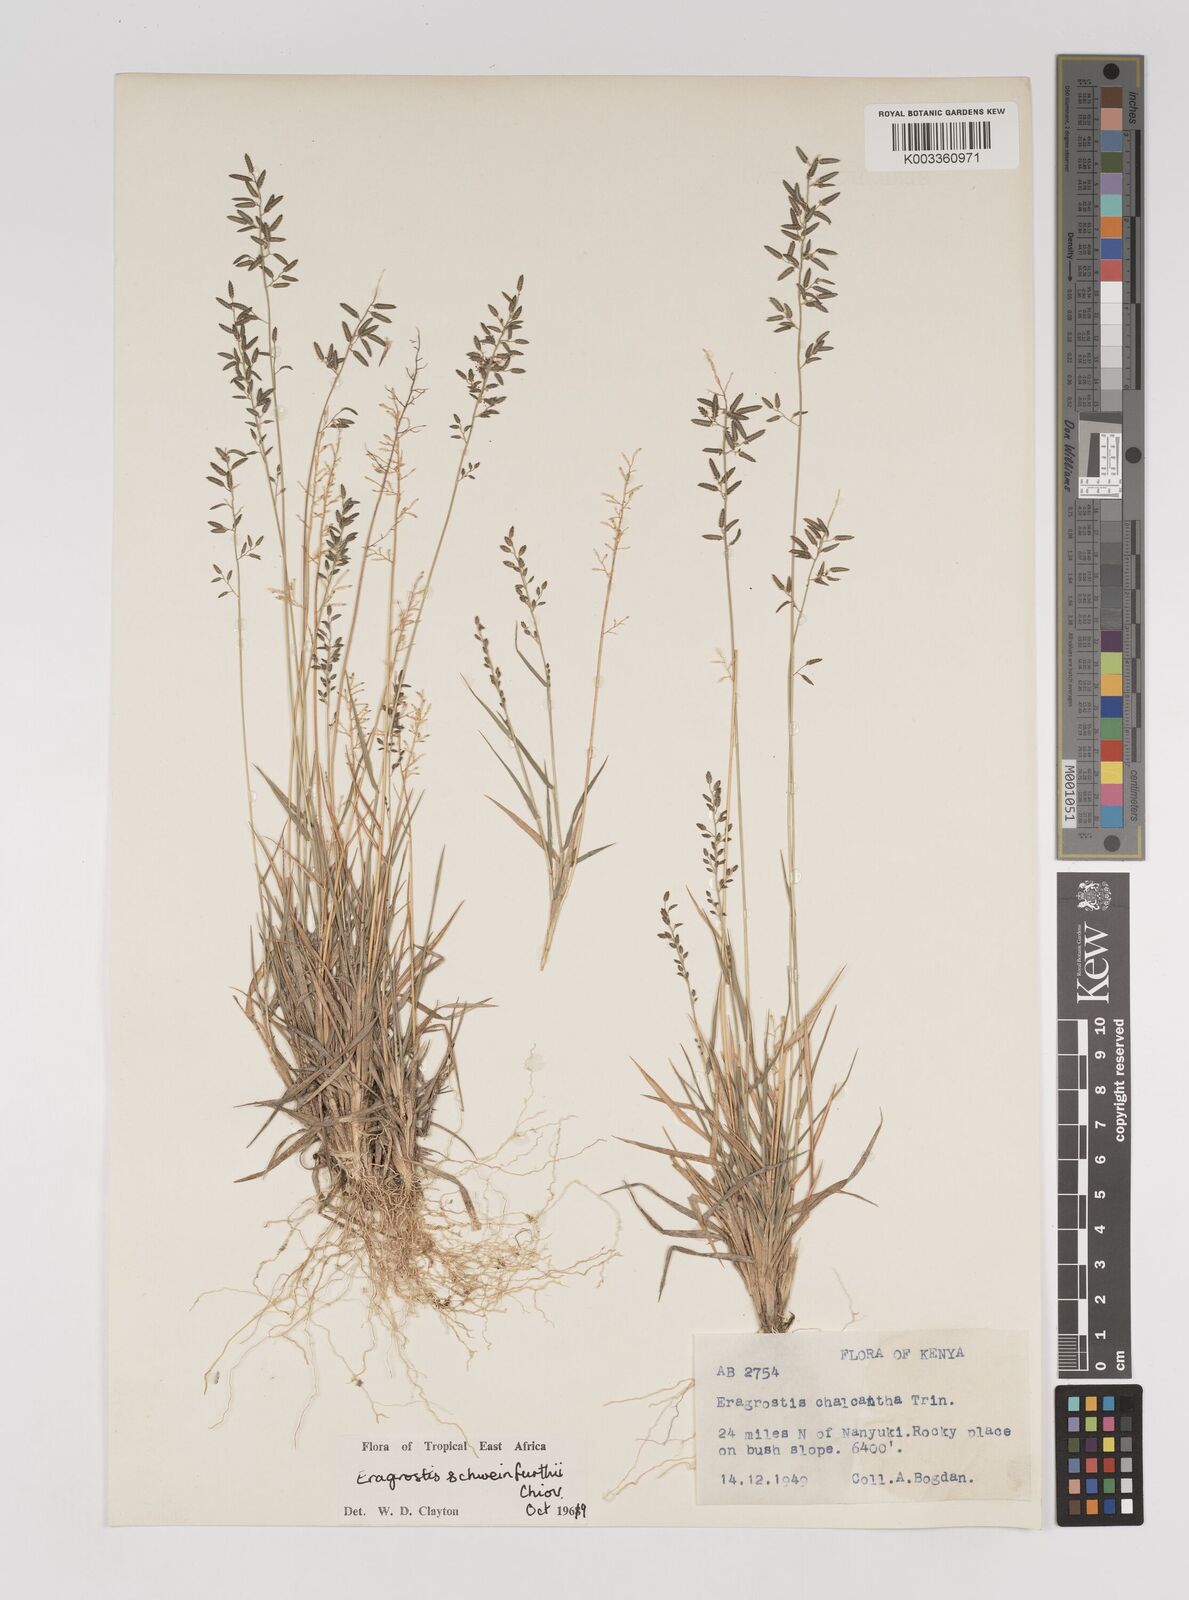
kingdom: Plantae
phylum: Tracheophyta
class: Liliopsida
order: Poales
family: Poaceae
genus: Eragrostis
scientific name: Eragrostis schweinfurthii
